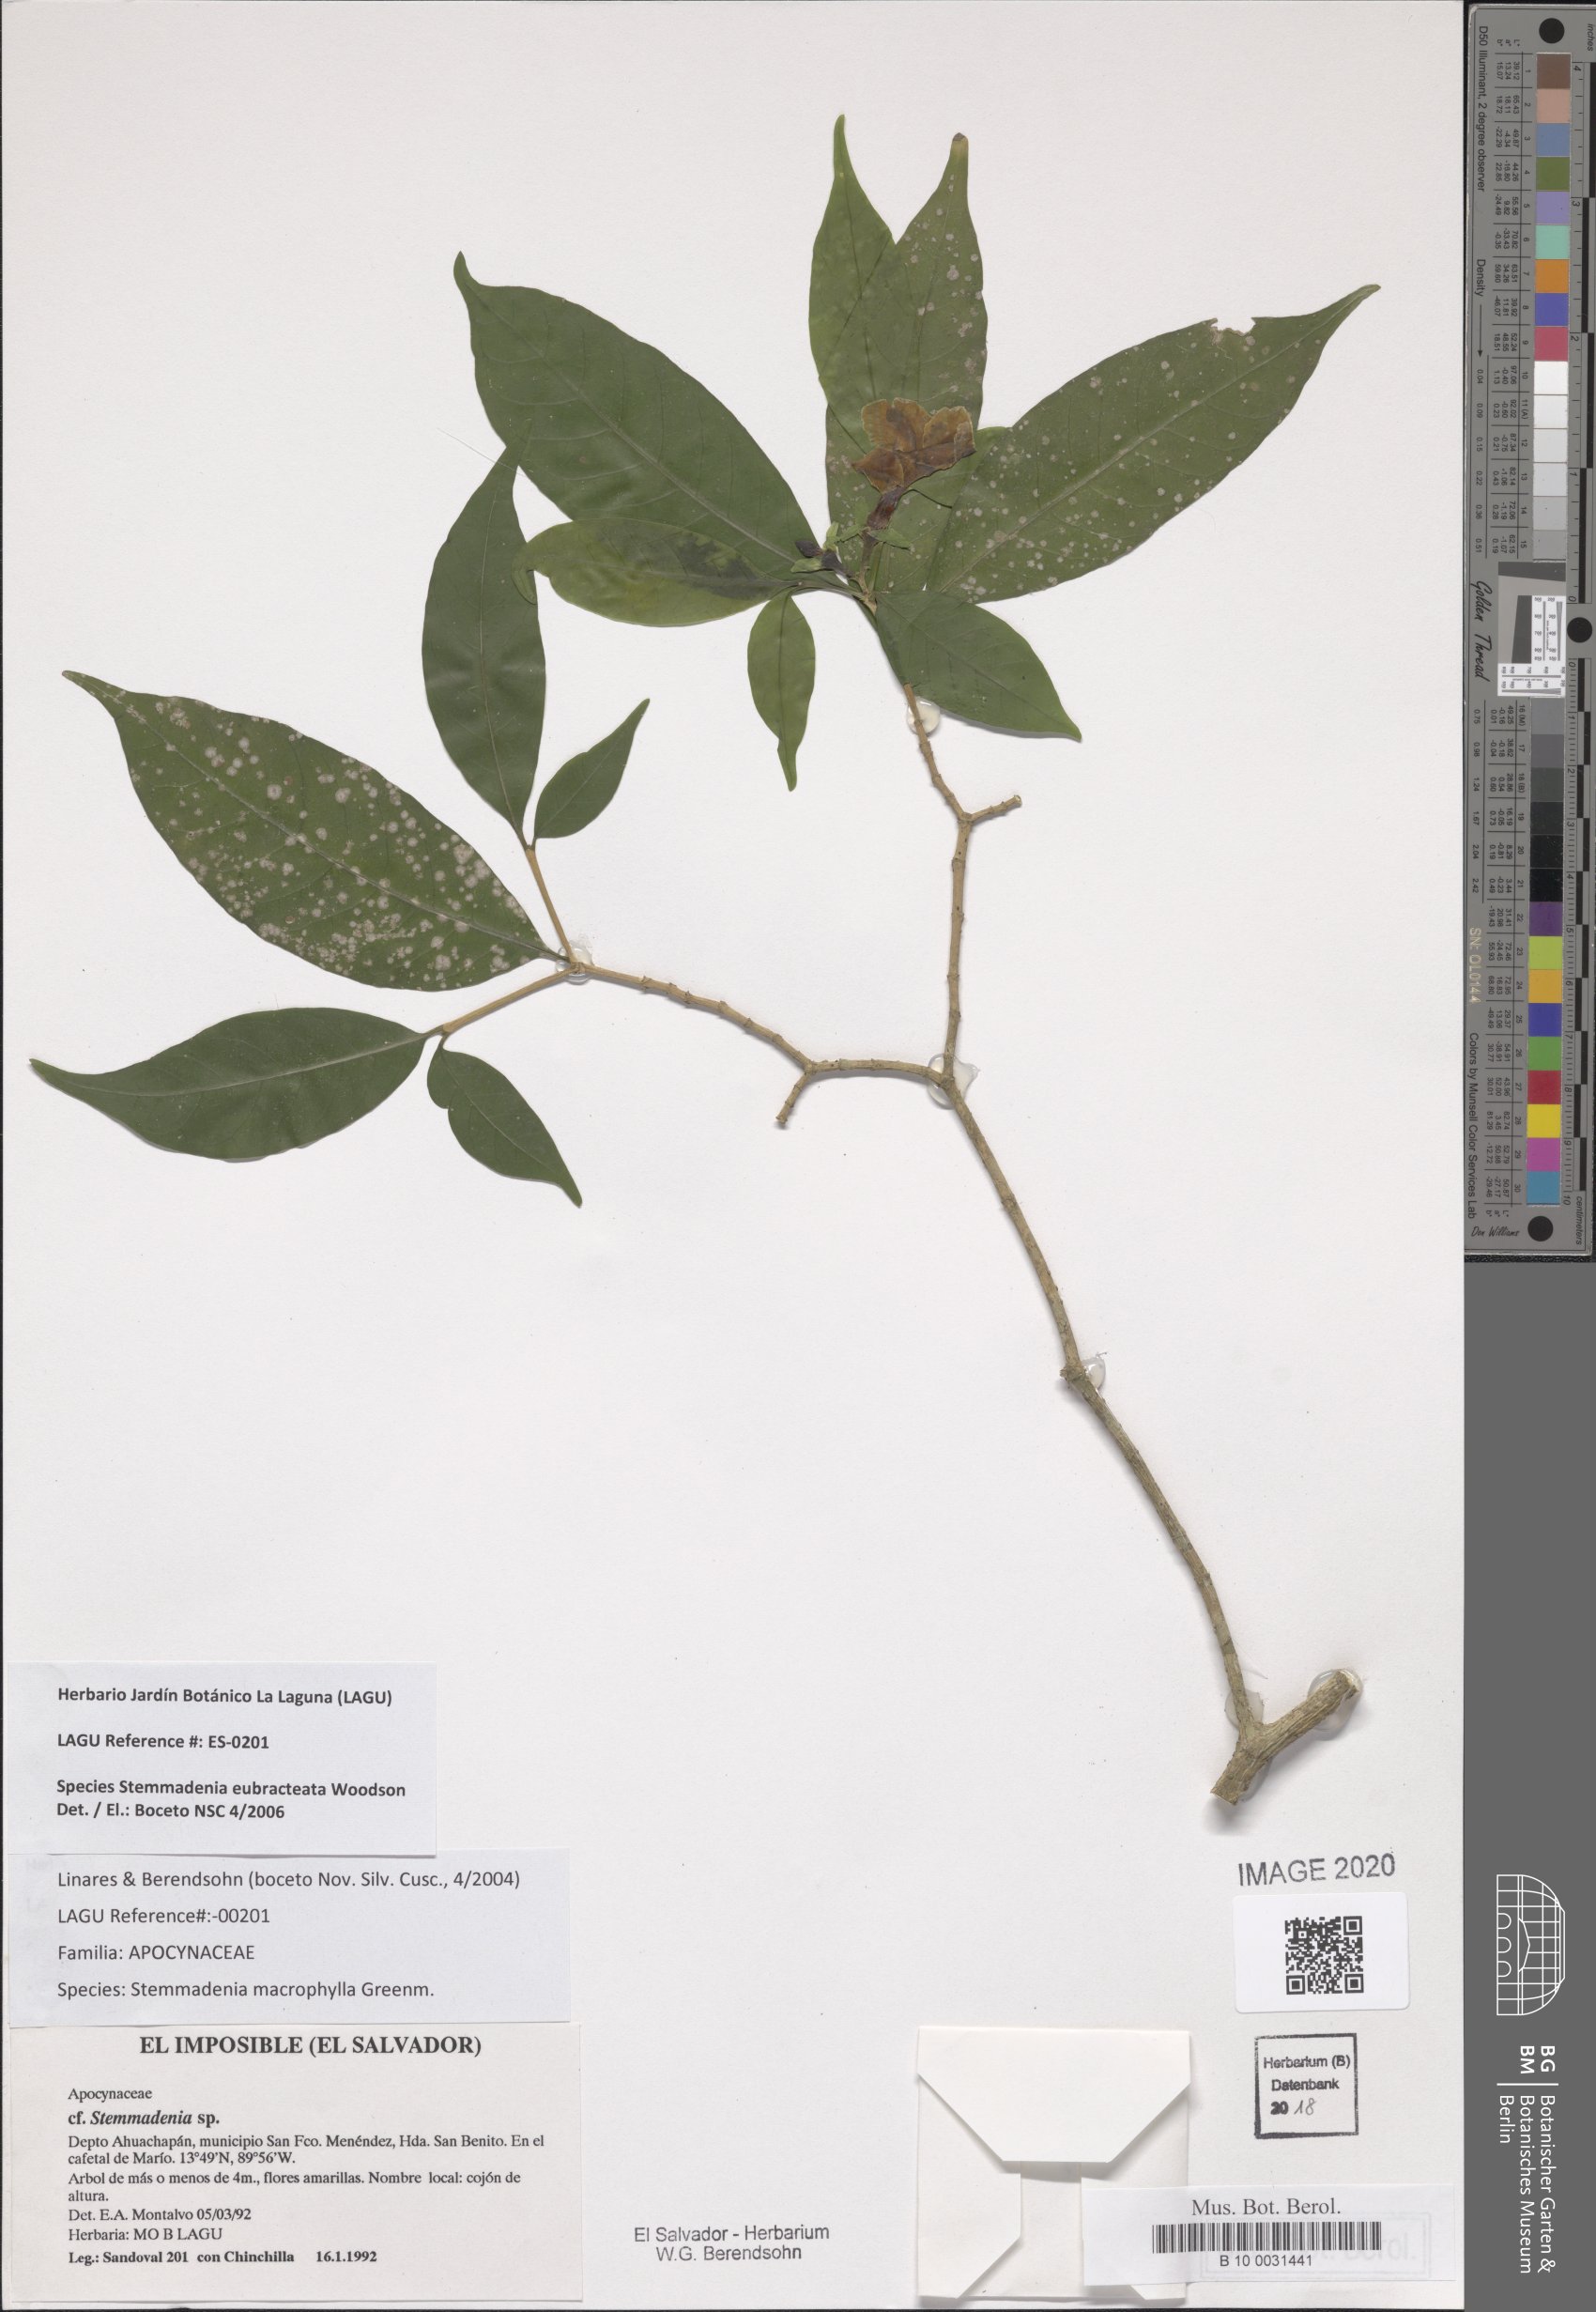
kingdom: Plantae
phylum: Tracheophyta
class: Magnoliopsida
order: Gentianales
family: Apocynaceae
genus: Tabernaemontana
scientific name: Tabernaemontana eubracteata
